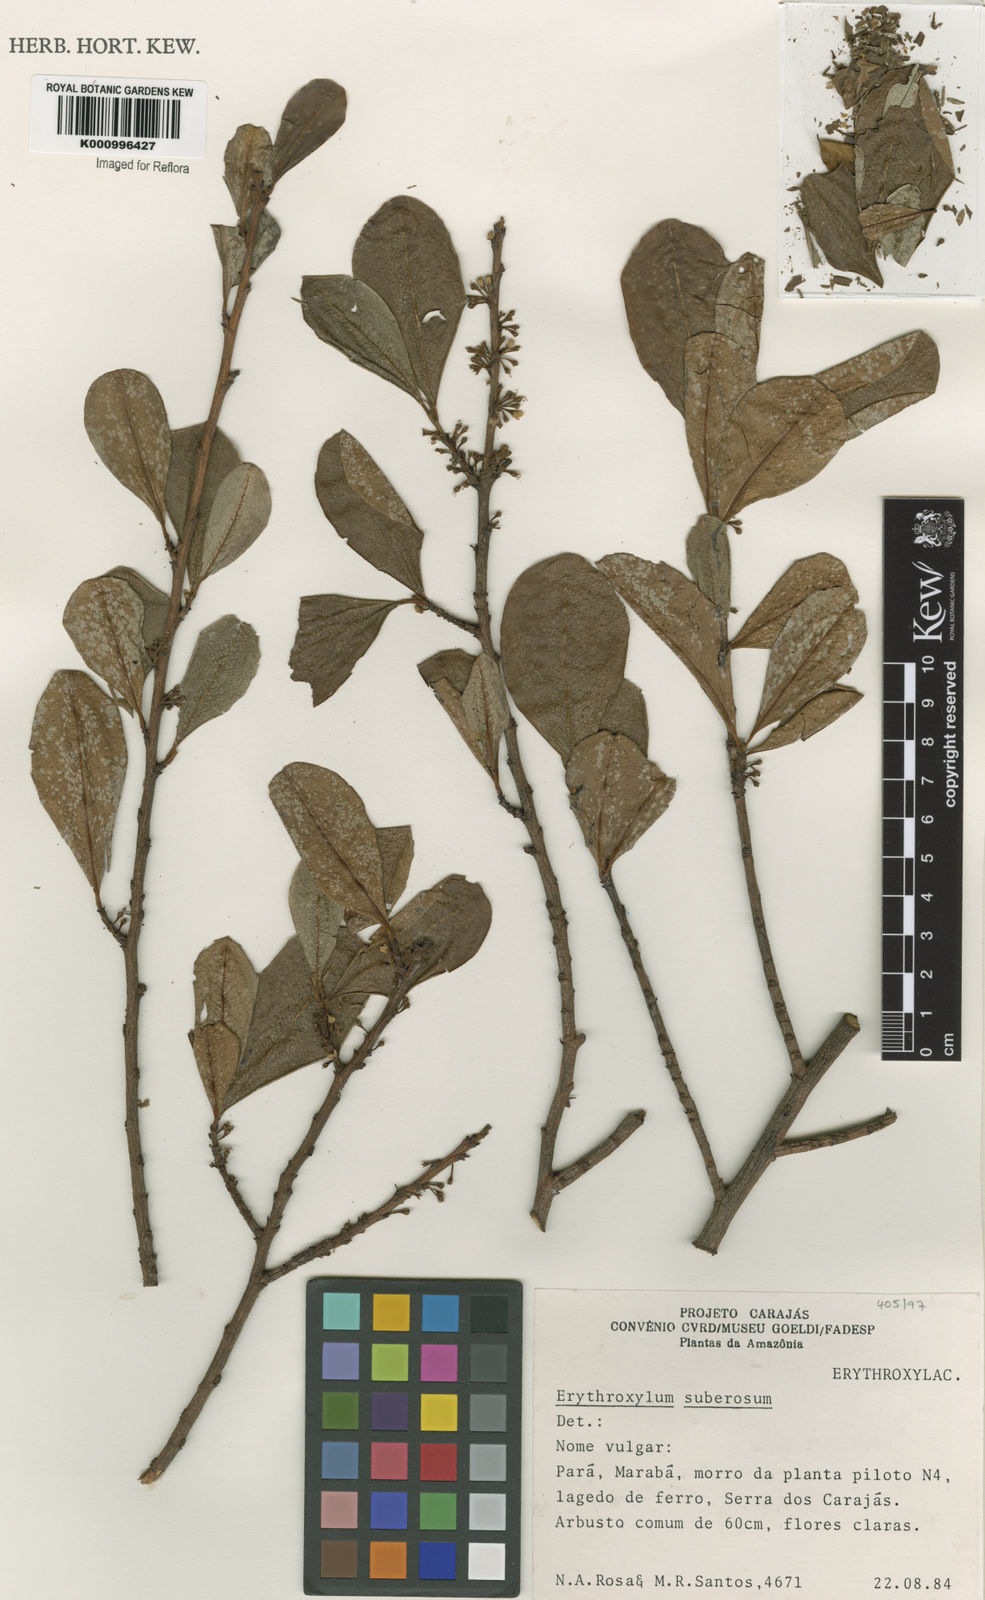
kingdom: Plantae
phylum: Tracheophyta
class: Magnoliopsida
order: Malpighiales
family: Erythroxylaceae
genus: Erythroxylum
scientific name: Erythroxylum suberosum
